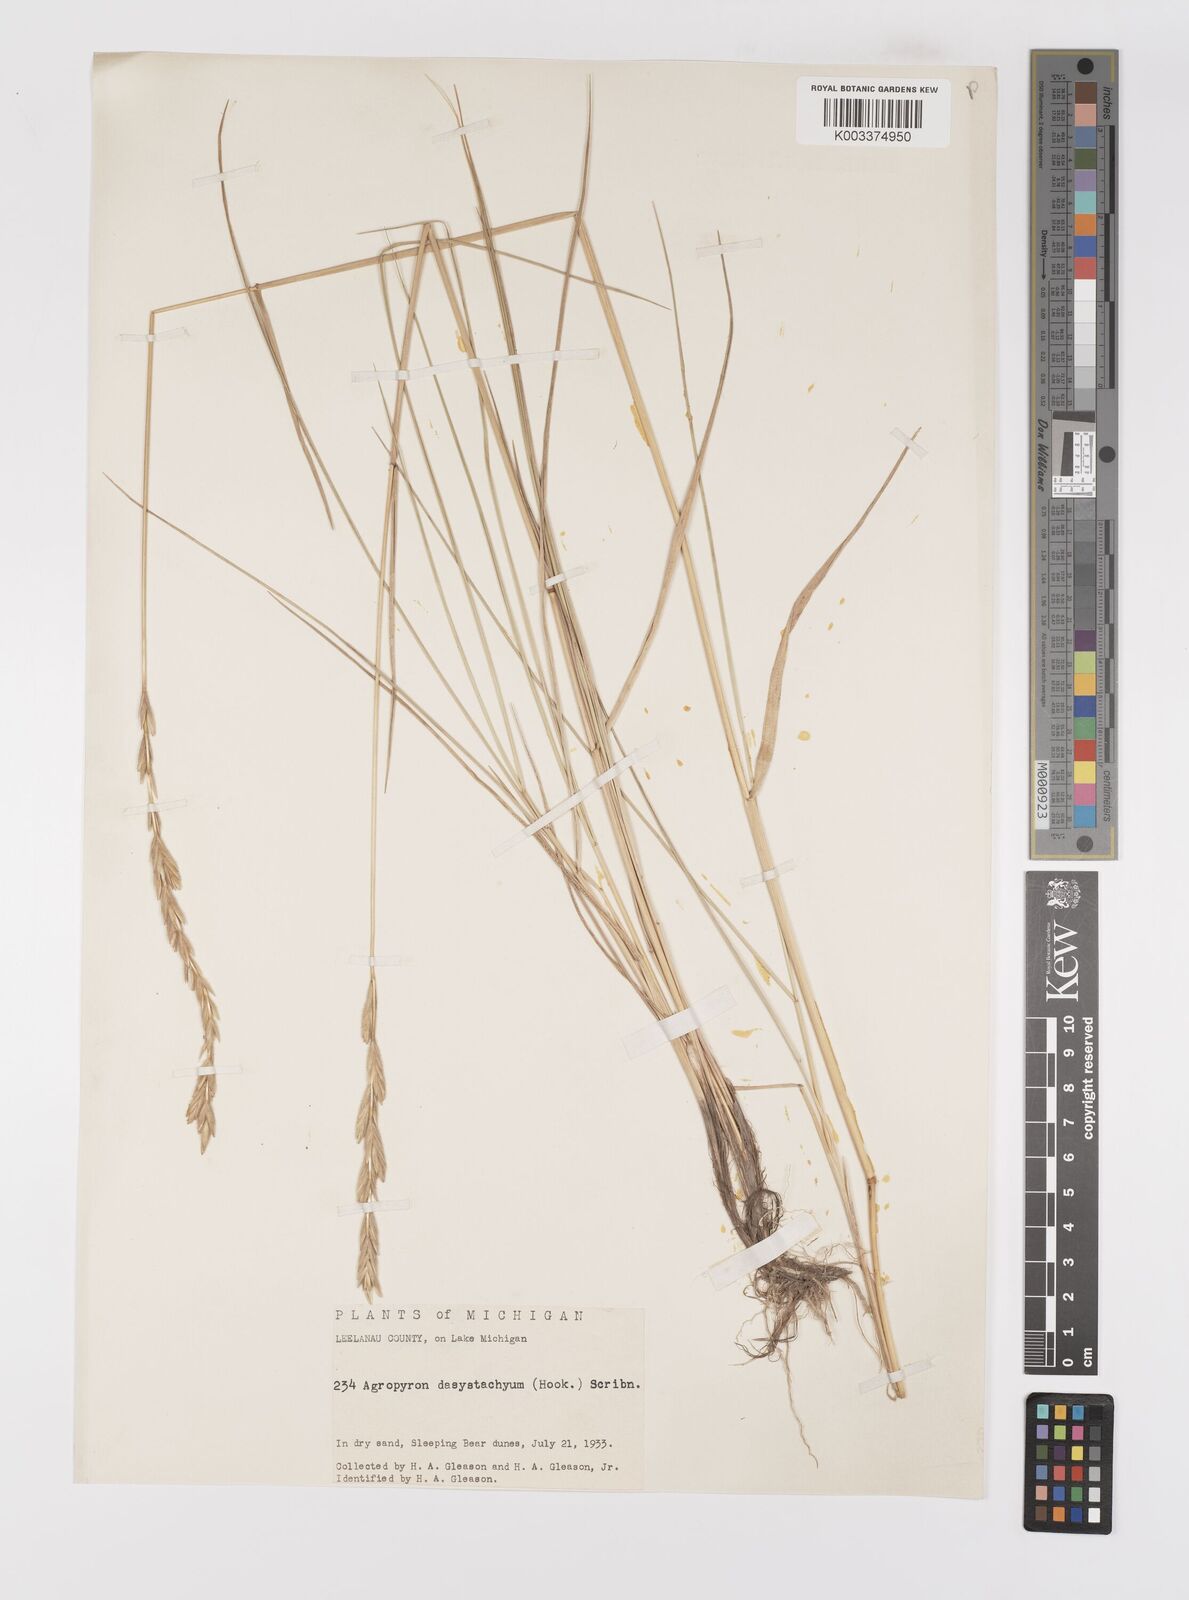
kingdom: Plantae
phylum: Tracheophyta
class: Liliopsida
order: Poales
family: Poaceae
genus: Elymus
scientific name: Elymus lanceolatus
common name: Thick-spike wheatgrass
